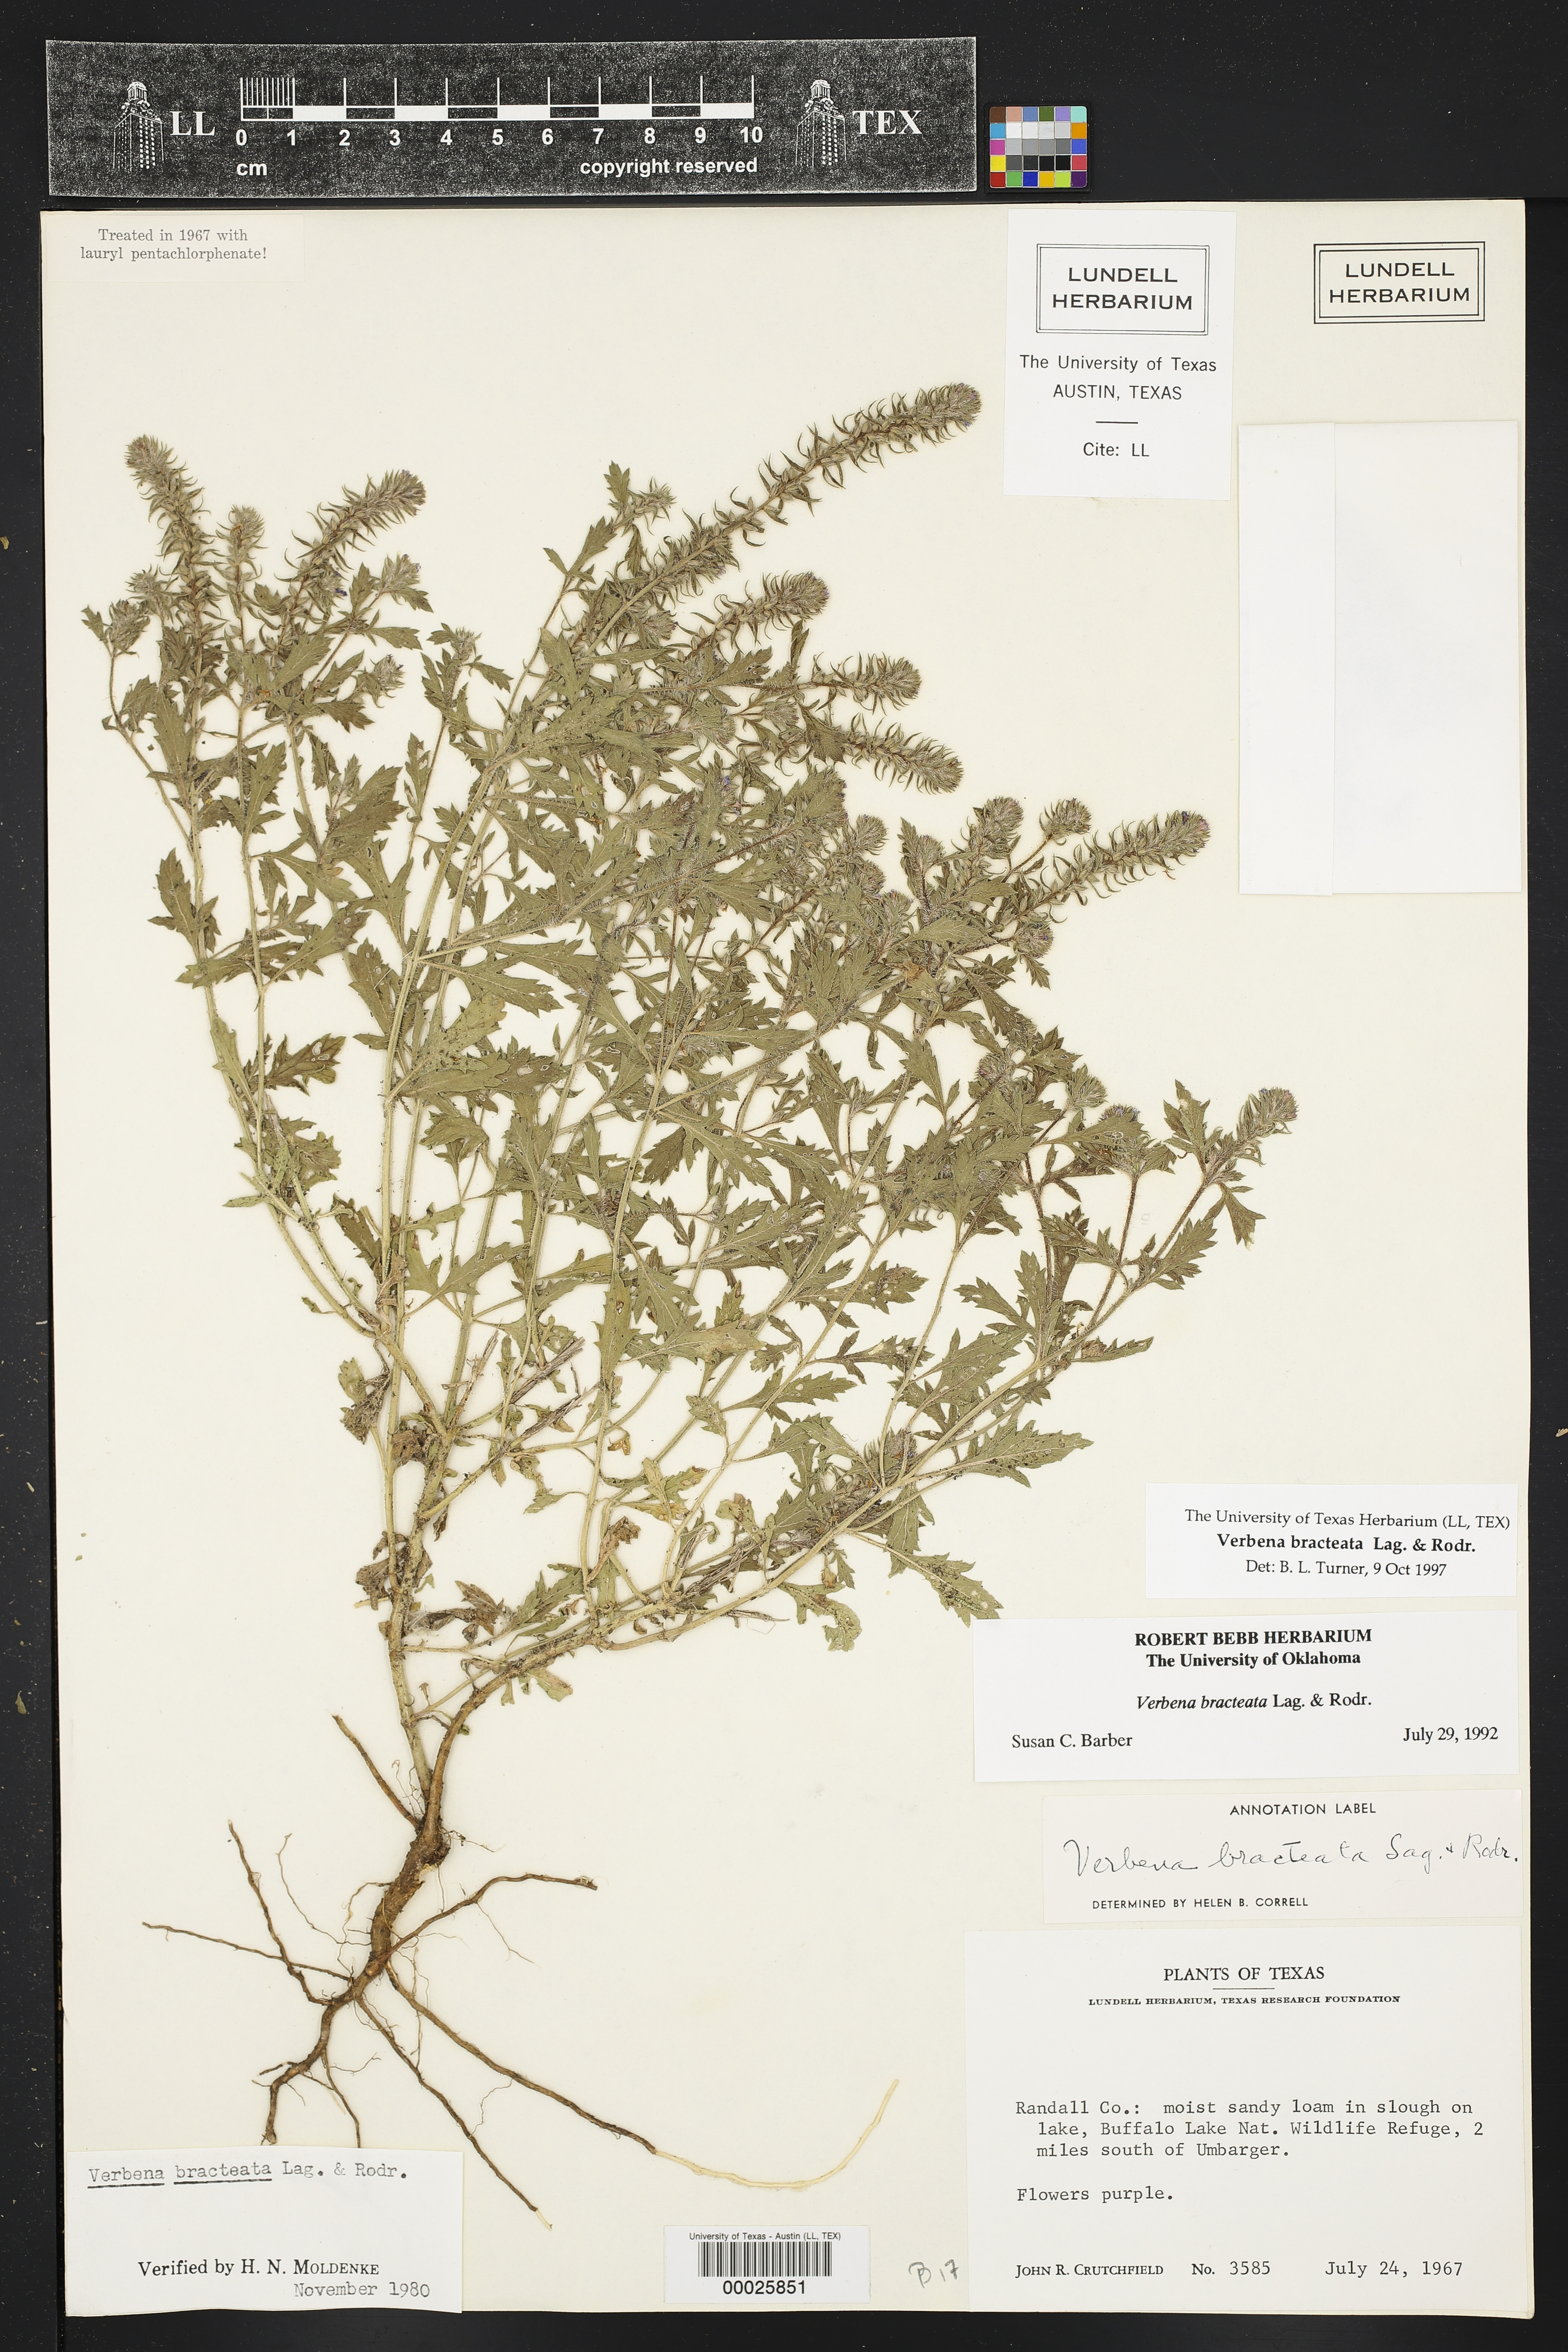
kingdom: Plantae
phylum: Tracheophyta
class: Magnoliopsida
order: Lamiales
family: Verbenaceae
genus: Verbena
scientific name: Verbena bracteata
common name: Bracted vervain
